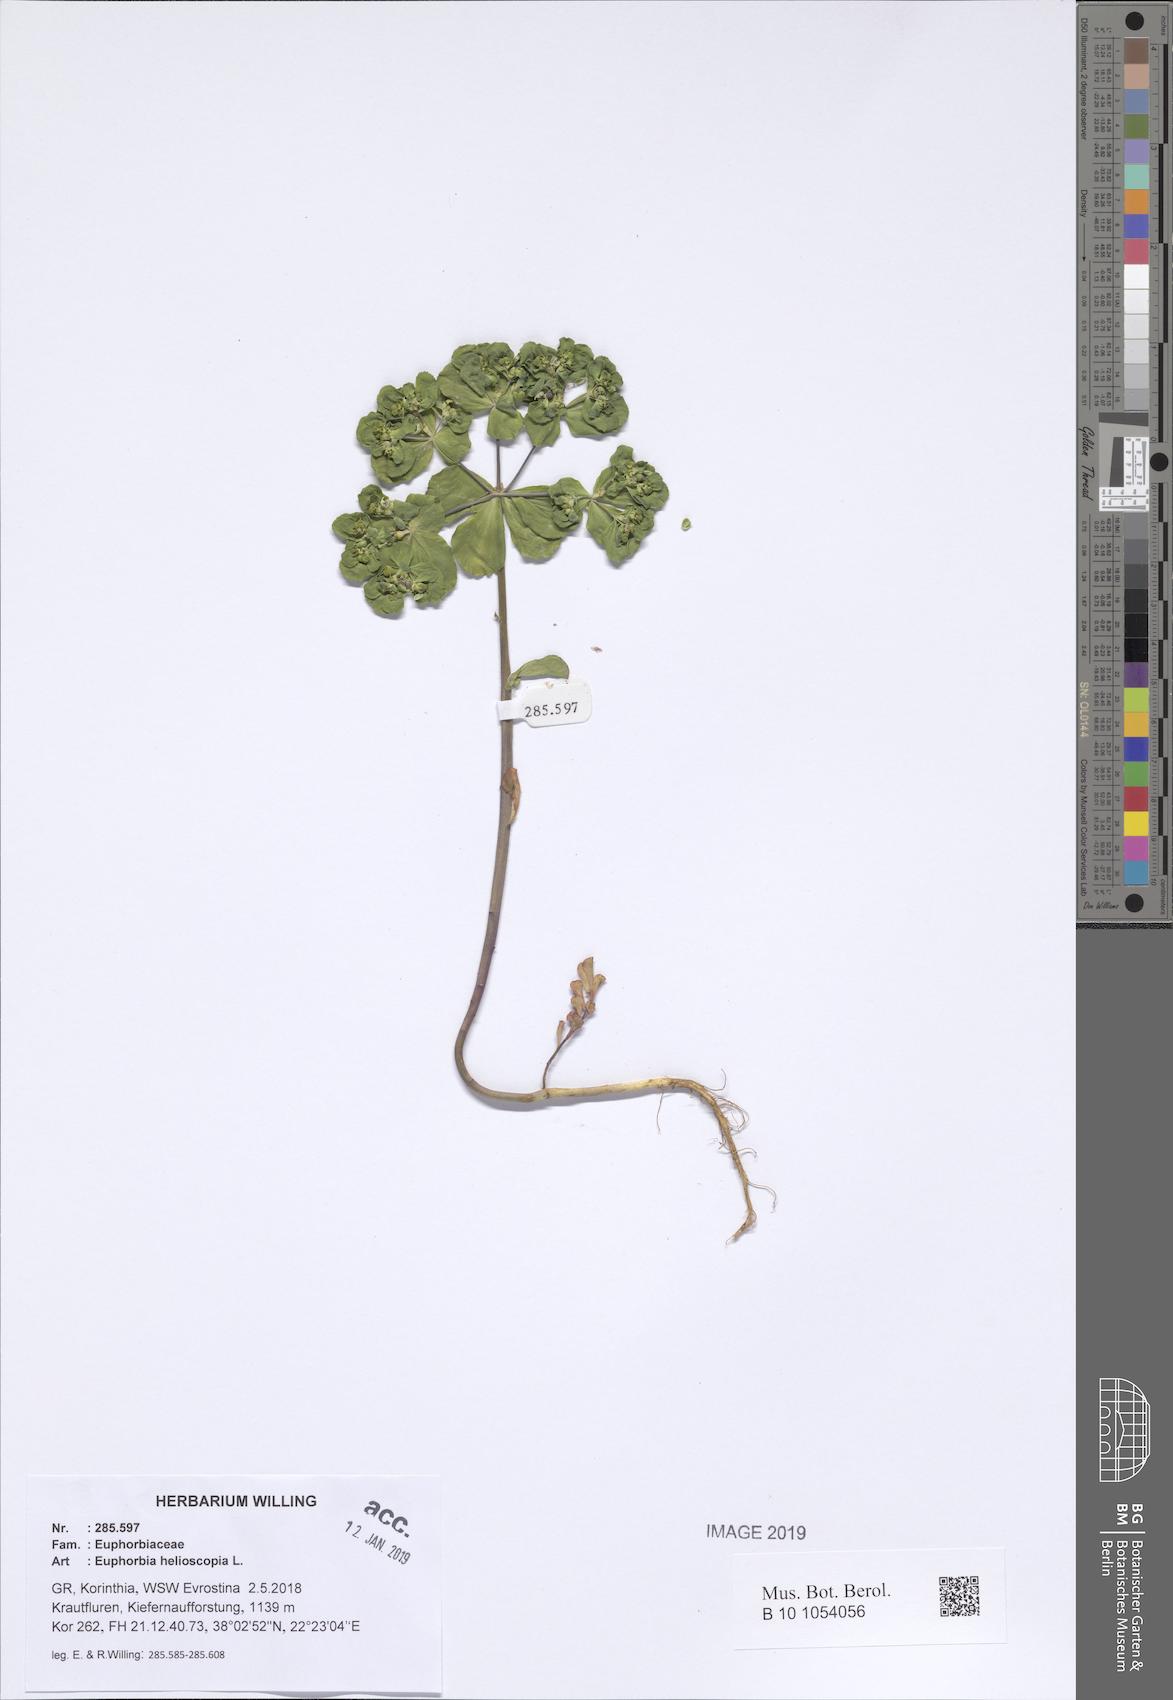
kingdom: Plantae
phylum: Tracheophyta
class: Magnoliopsida
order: Malpighiales
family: Euphorbiaceae
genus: Euphorbia
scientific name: Euphorbia helioscopia
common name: Sun spurge
